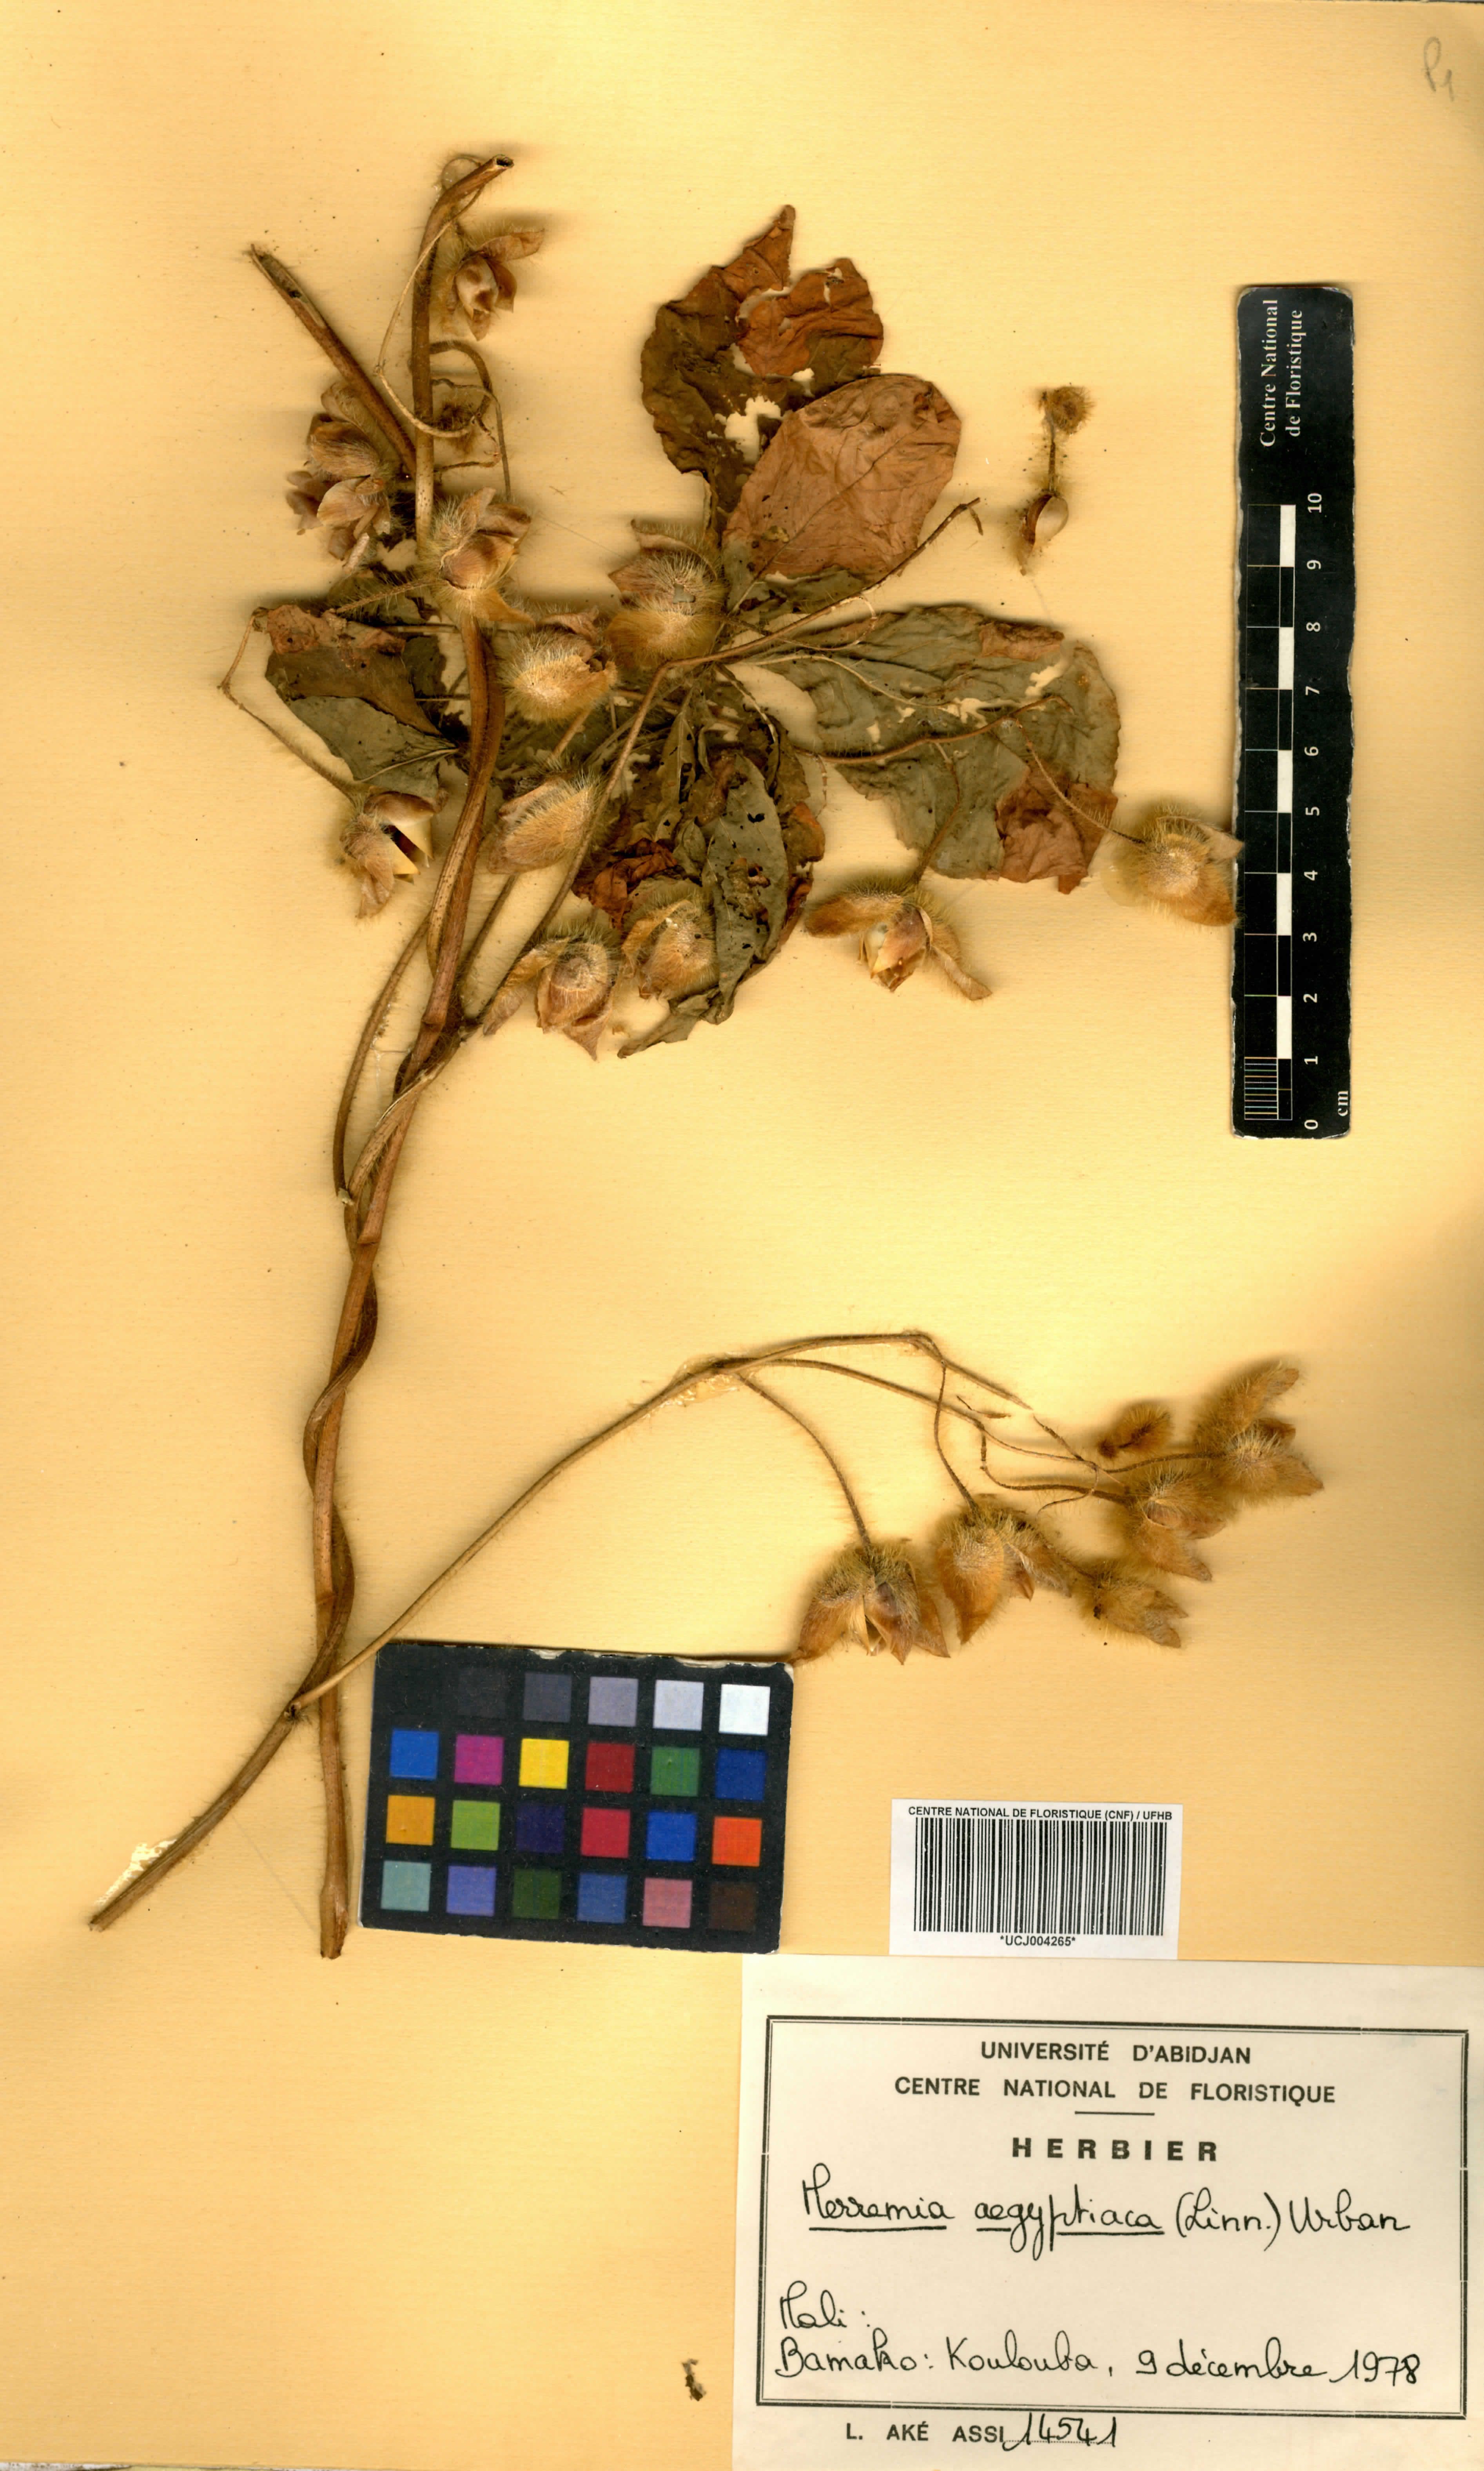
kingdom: Plantae
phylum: Tracheophyta
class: Magnoliopsida
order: Solanales
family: Convolvulaceae
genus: Distimake
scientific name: Distimake aegyptius
